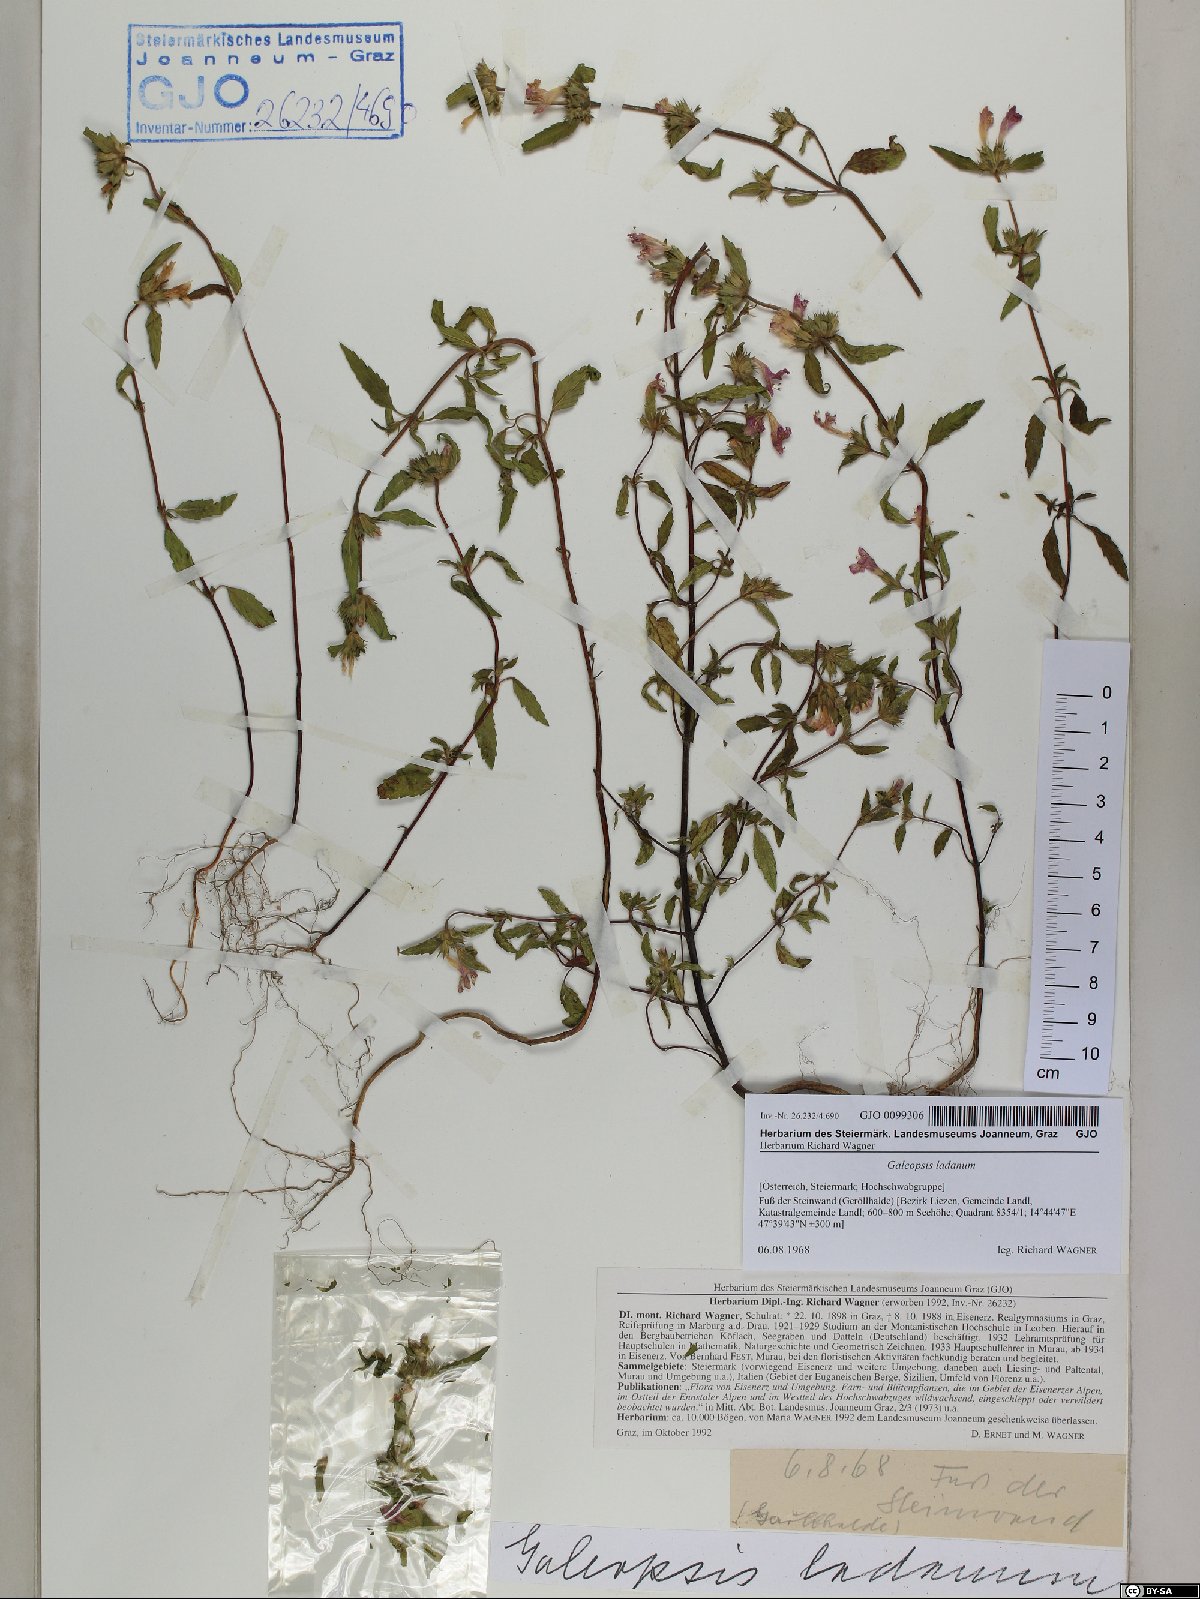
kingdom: Plantae
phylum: Tracheophyta
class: Magnoliopsida
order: Lamiales
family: Lamiaceae
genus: Galeopsis
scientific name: Galeopsis ladanum
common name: Broad-leaved hemp-nettle
